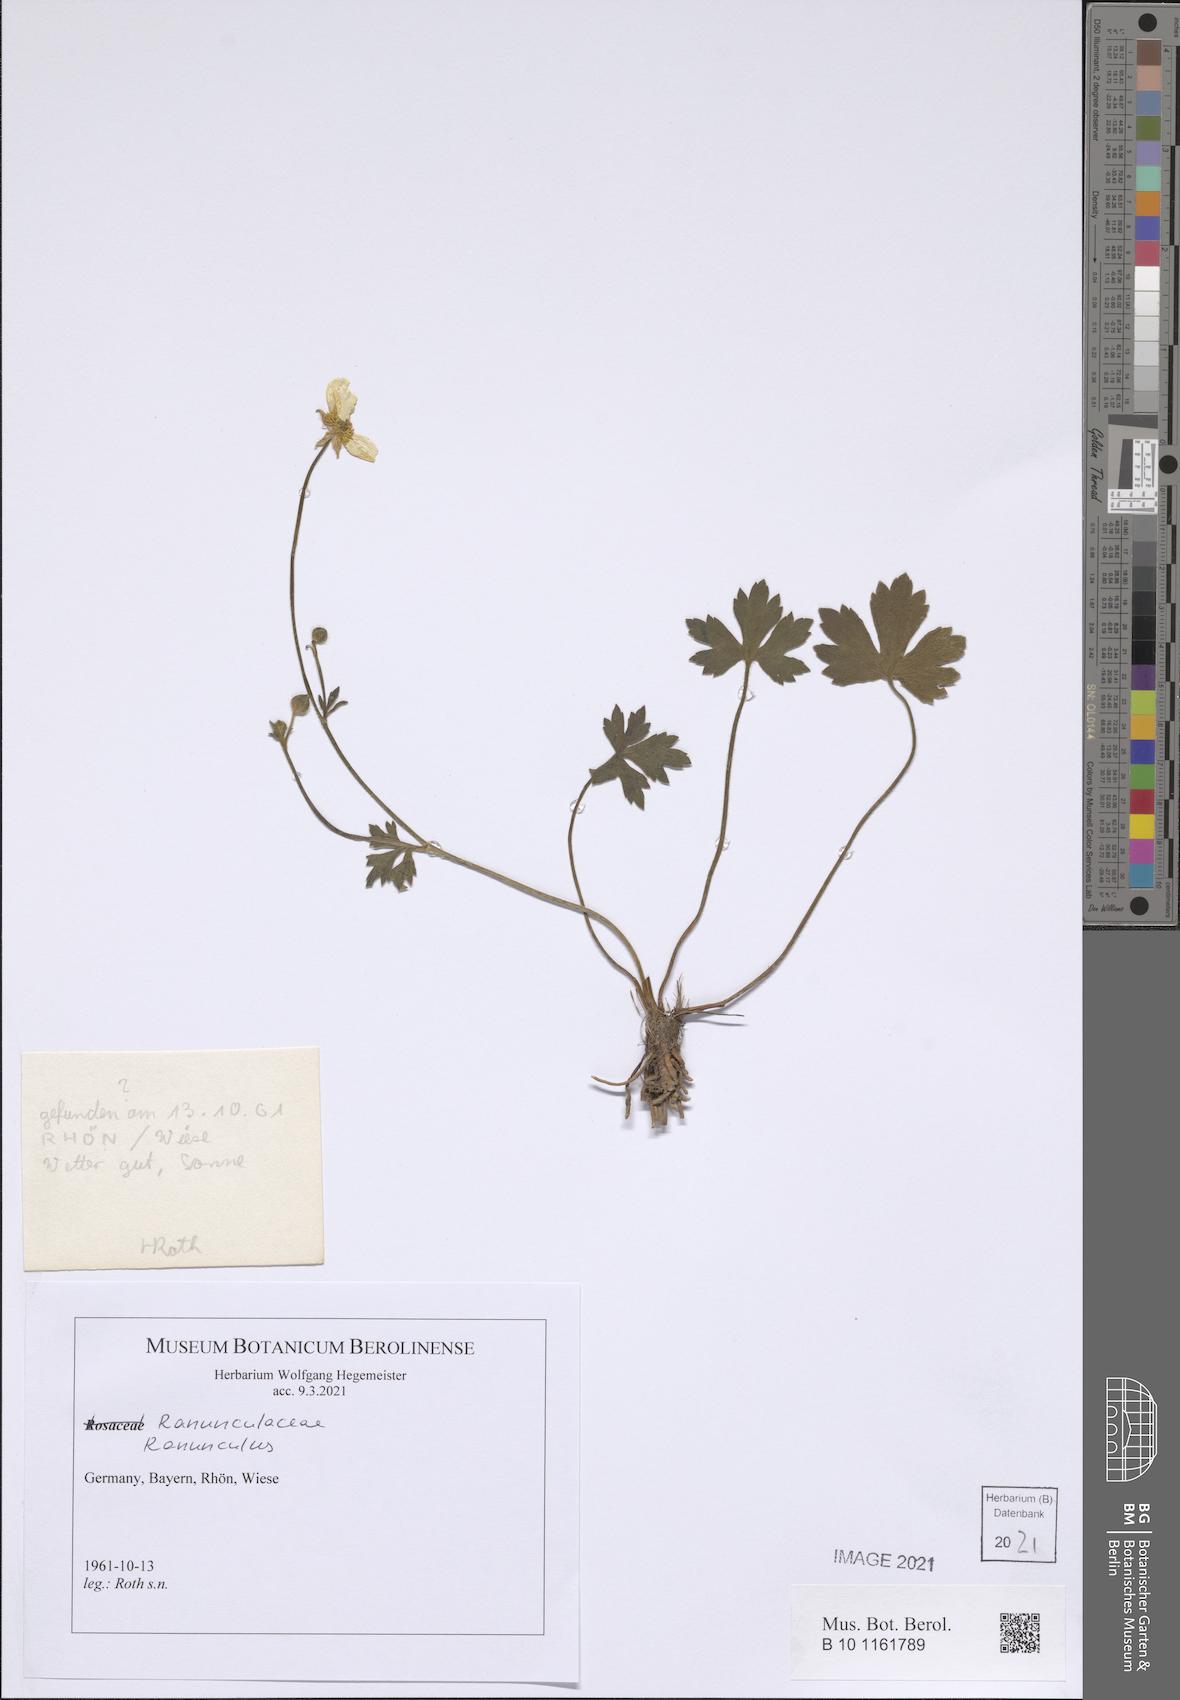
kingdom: Plantae
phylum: Tracheophyta
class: Magnoliopsida
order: Ranunculales
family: Ranunculaceae
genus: Ranunculus
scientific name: Ranunculus
